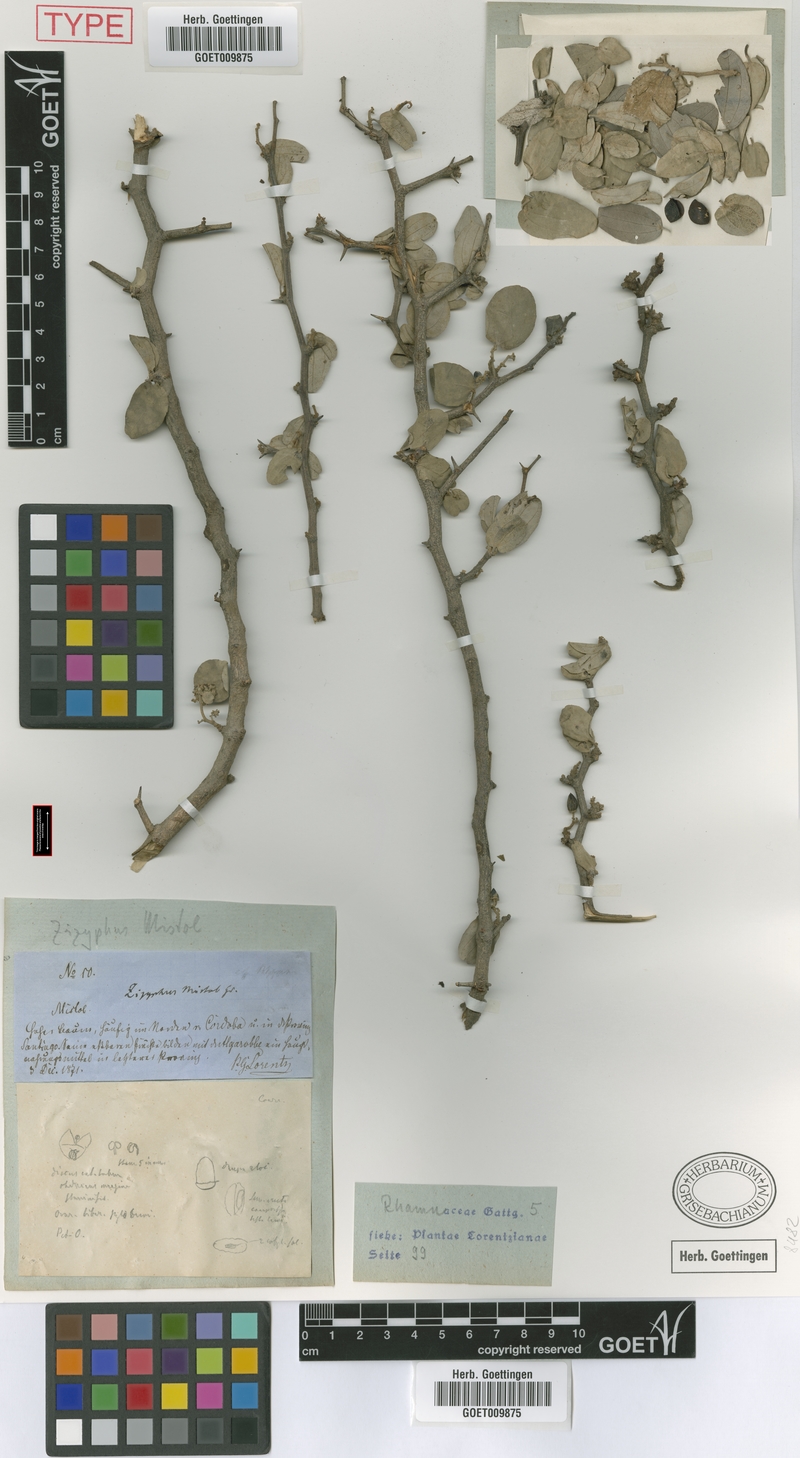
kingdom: Plantae
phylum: Tracheophyta
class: Magnoliopsida
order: Rosales
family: Rhamnaceae
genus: Sarcomphalus
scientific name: Sarcomphalus mistol
